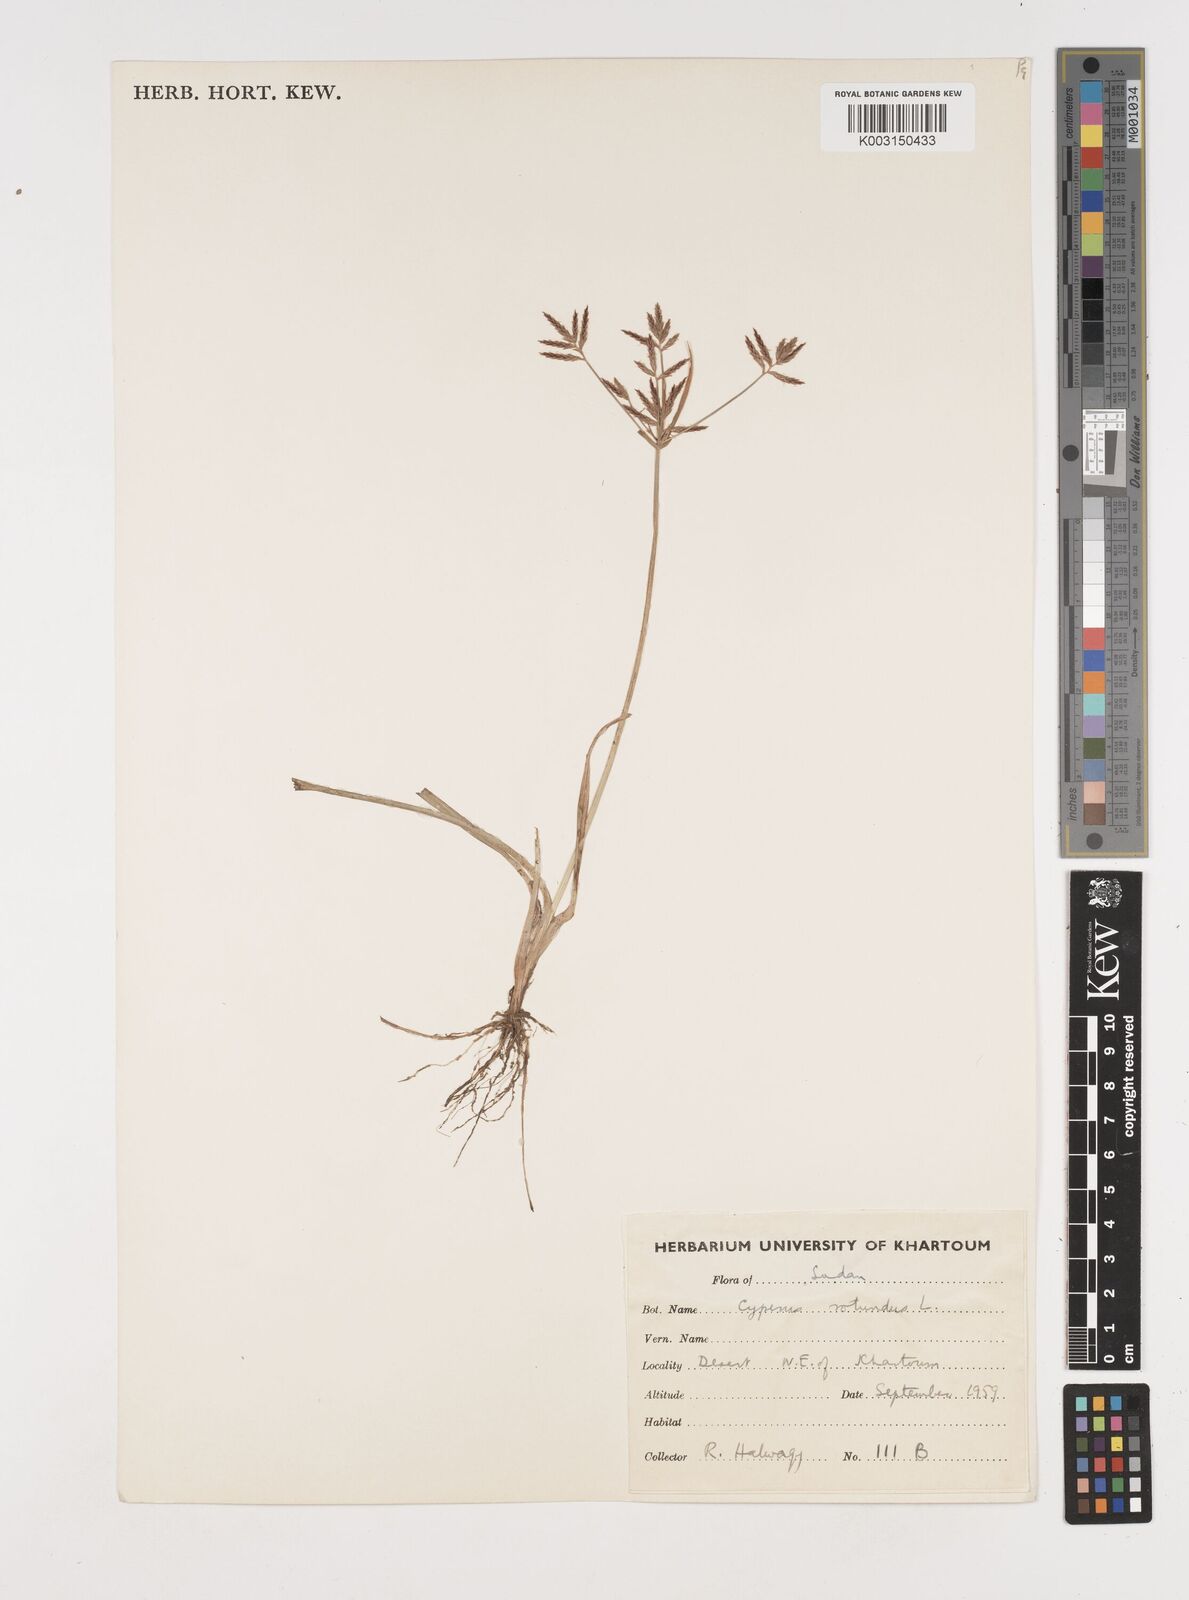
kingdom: Plantae
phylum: Tracheophyta
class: Liliopsida
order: Poales
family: Cyperaceae
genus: Cyperus
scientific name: Cyperus rotundus
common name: Nutgrass
